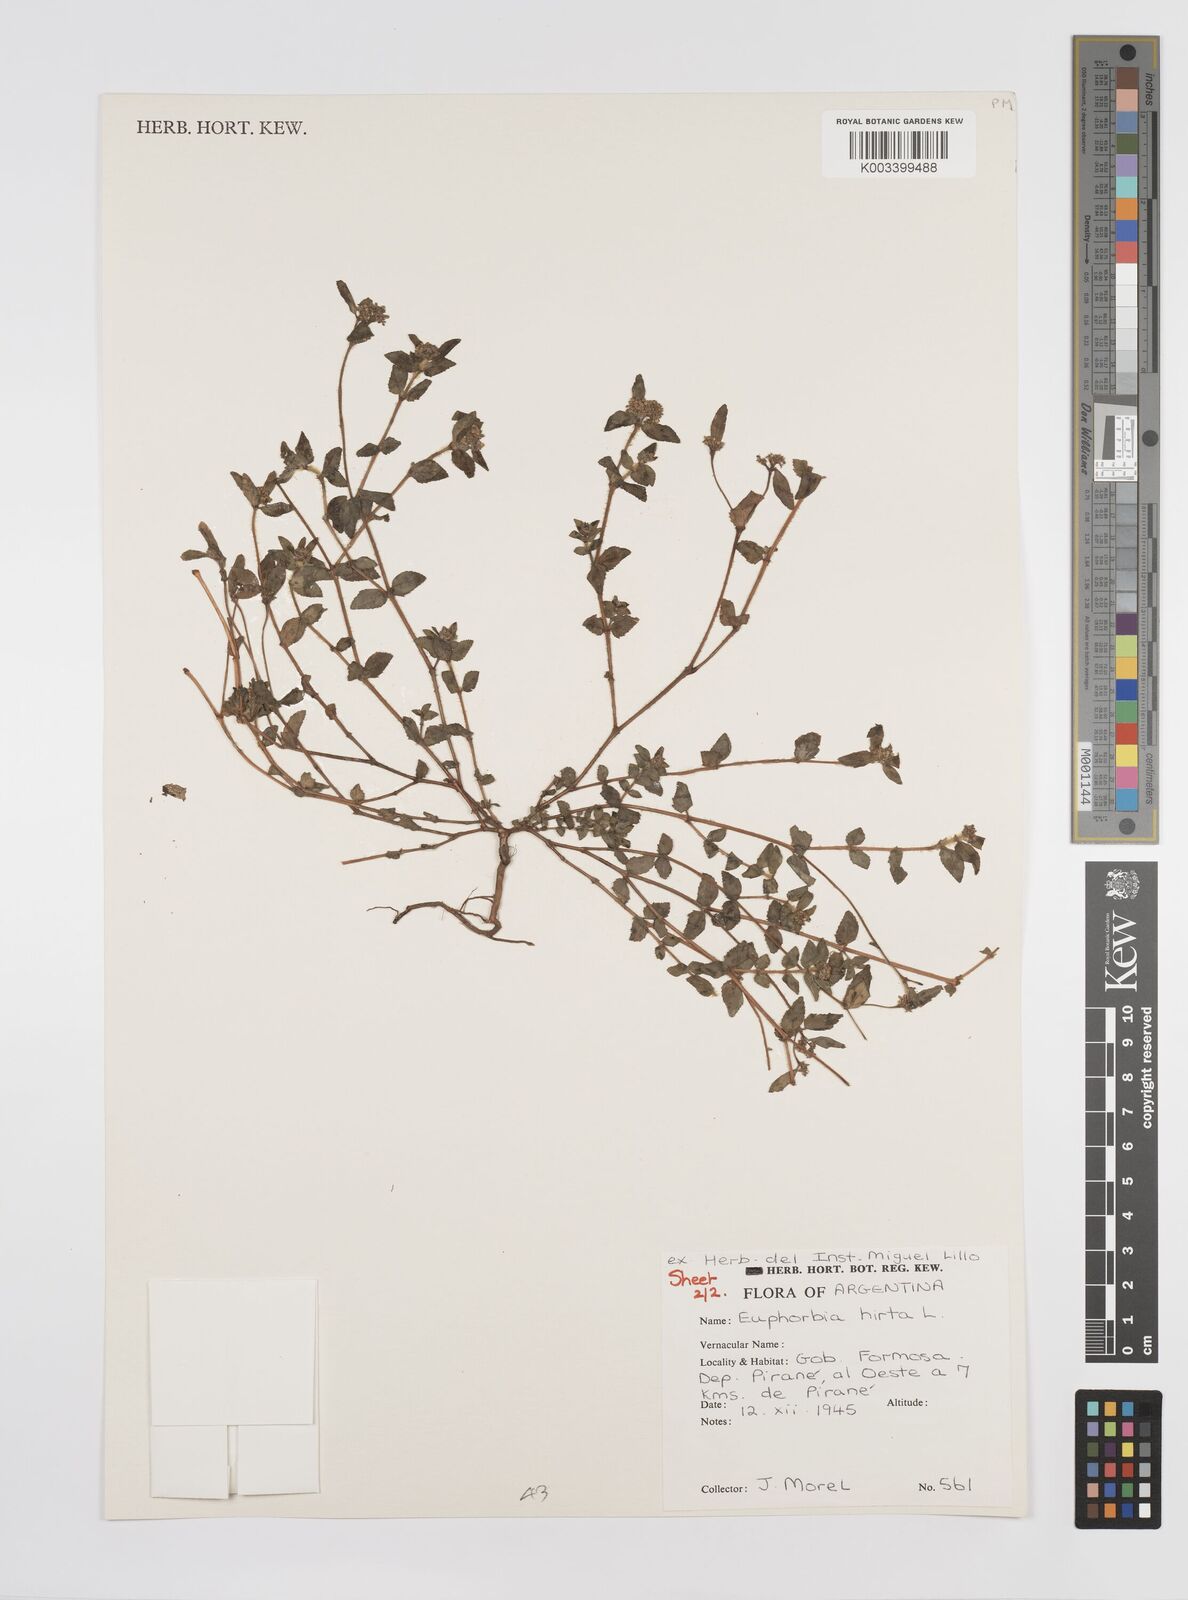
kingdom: Plantae
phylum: Tracheophyta
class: Magnoliopsida
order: Malpighiales
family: Euphorbiaceae
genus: Euphorbia
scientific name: Euphorbia hirta
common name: Pillpod sandmat
